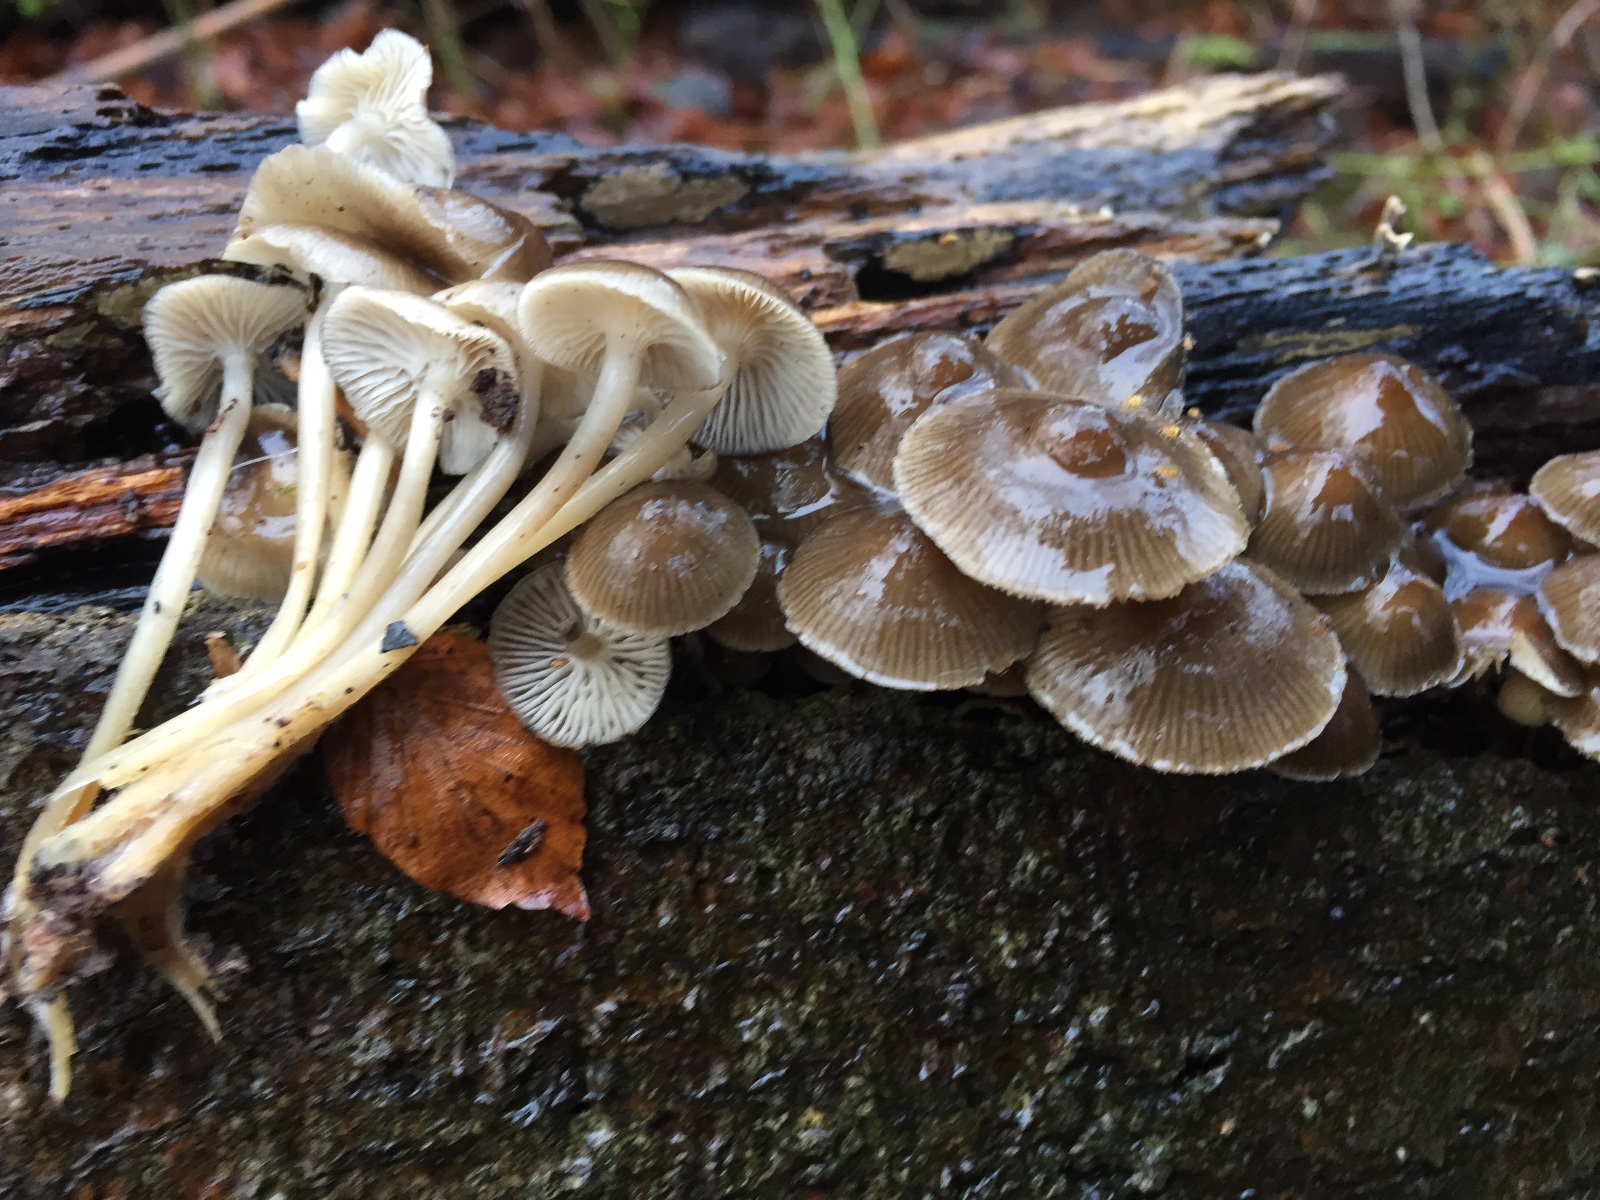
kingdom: Fungi
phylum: Basidiomycota
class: Agaricomycetes
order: Agaricales
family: Mycenaceae
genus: Mycena
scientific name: Mycena tintinnabulum
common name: vinter-huesvamp
